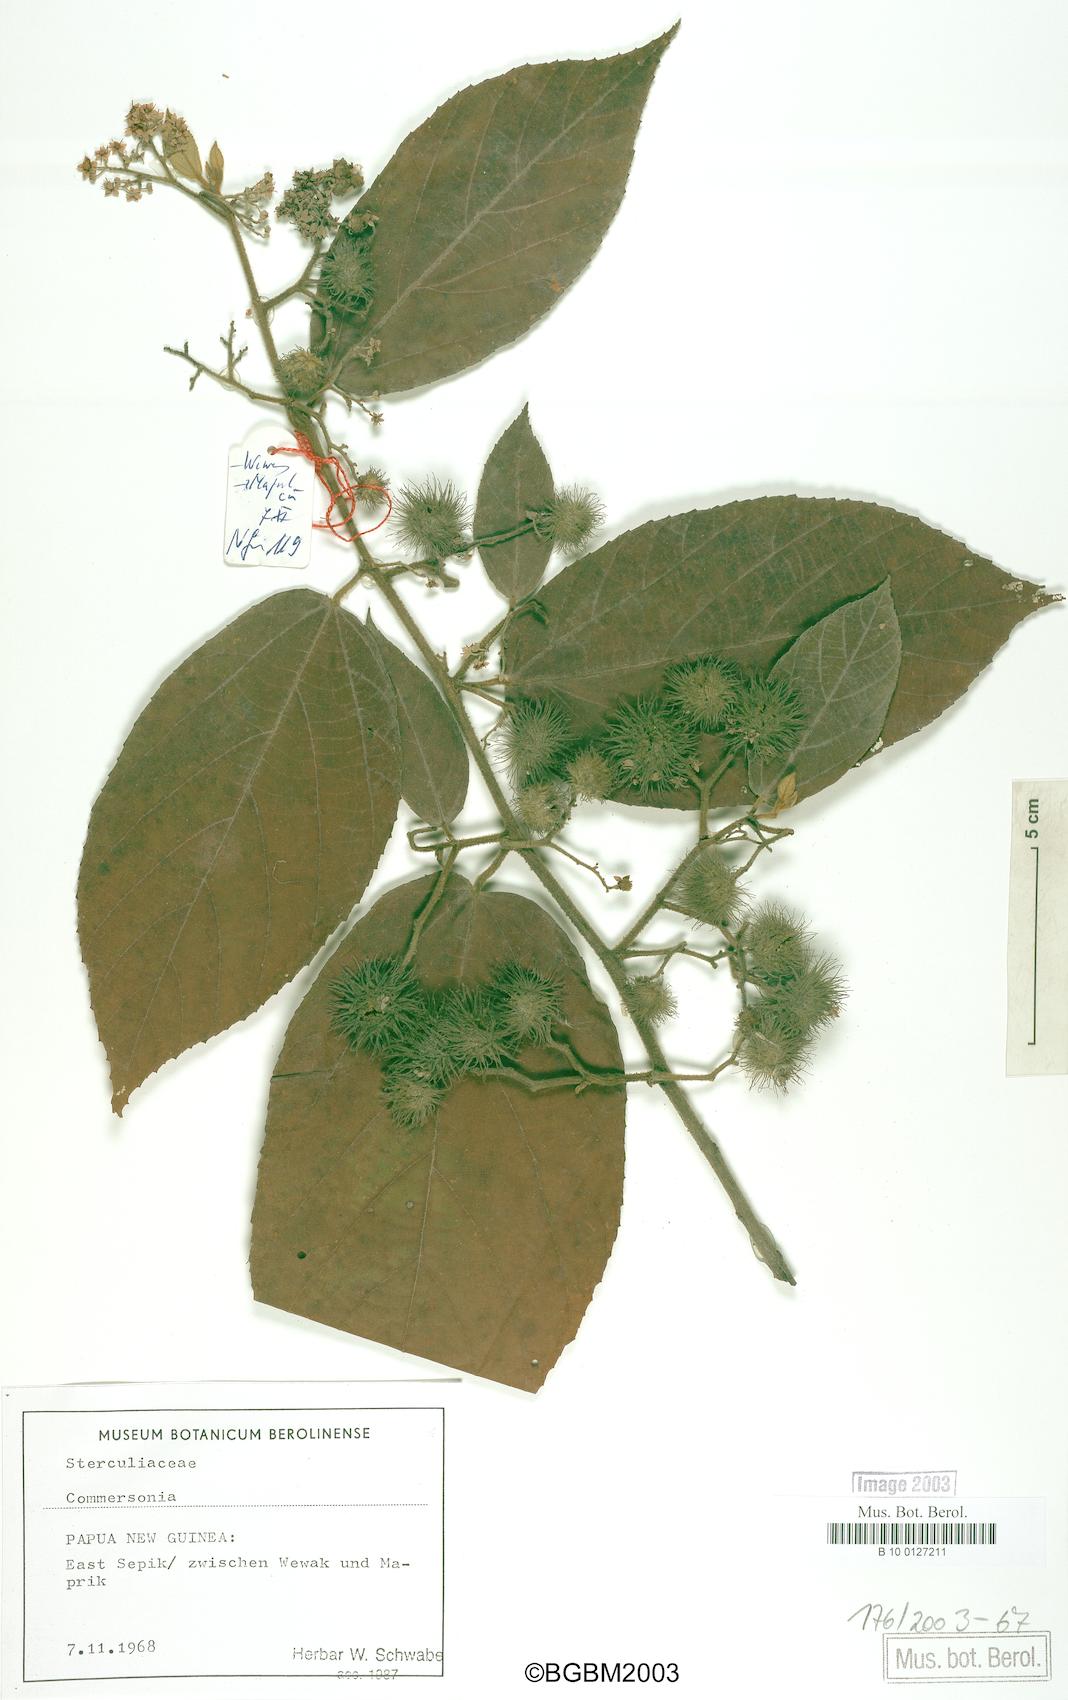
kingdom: Plantae
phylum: Tracheophyta
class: Magnoliopsida
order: Malvales
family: Malvaceae
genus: Commersonia
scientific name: Commersonia
